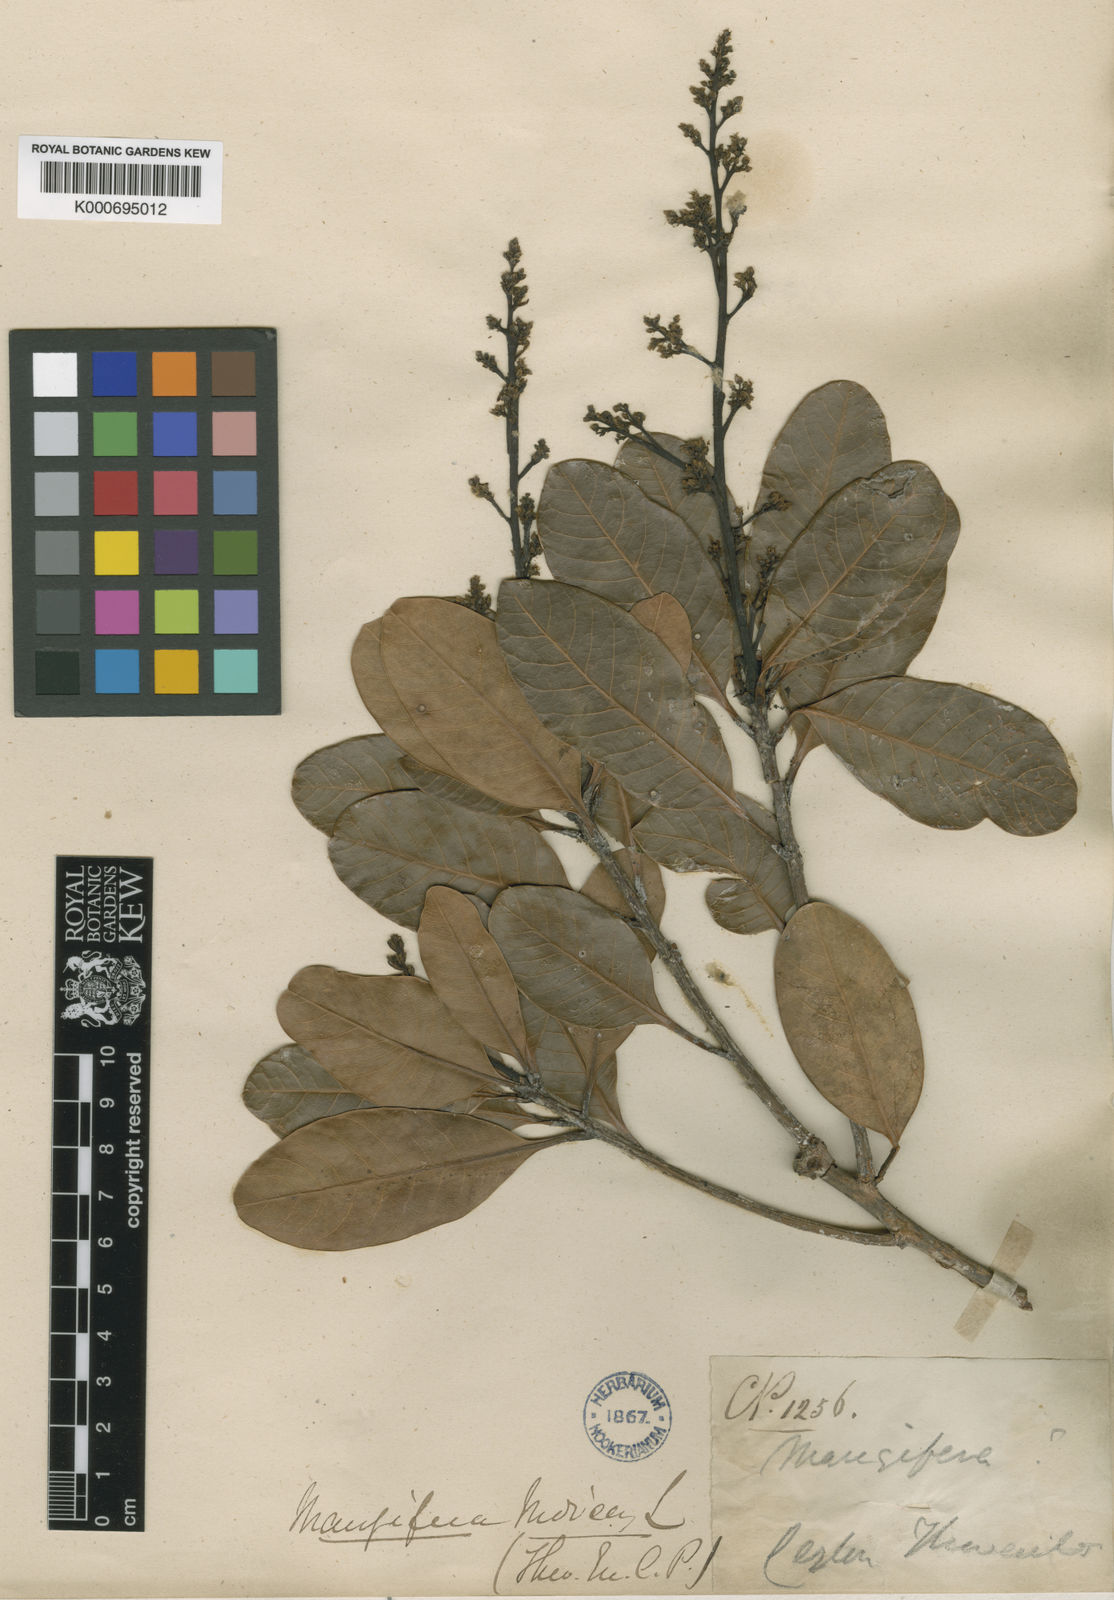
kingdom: Plantae
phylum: Tracheophyta
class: Magnoliopsida
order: Sapindales
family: Anacardiaceae
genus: Mangifera
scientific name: Mangifera zeylanica
